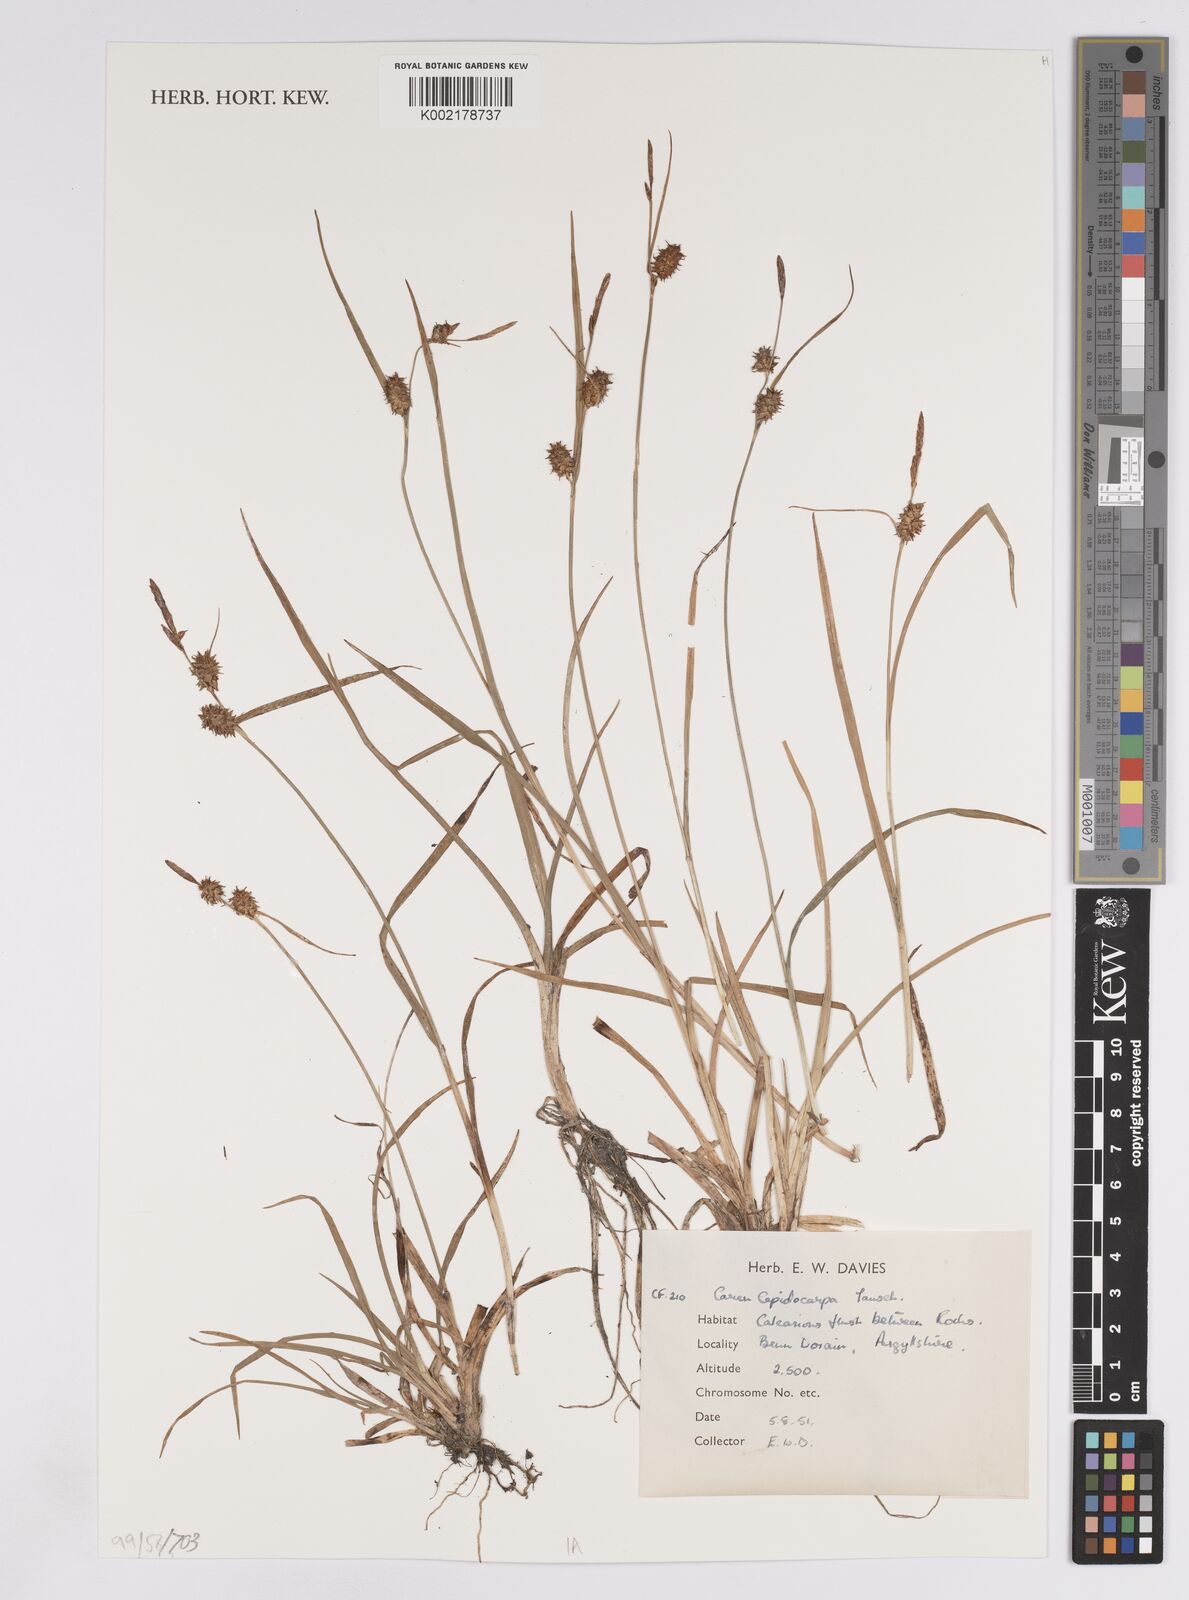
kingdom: Plantae
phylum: Tracheophyta
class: Liliopsida
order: Poales
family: Cyperaceae
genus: Carex
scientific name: Carex lepidocarpa
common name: Long-stalked yellow-sedge
